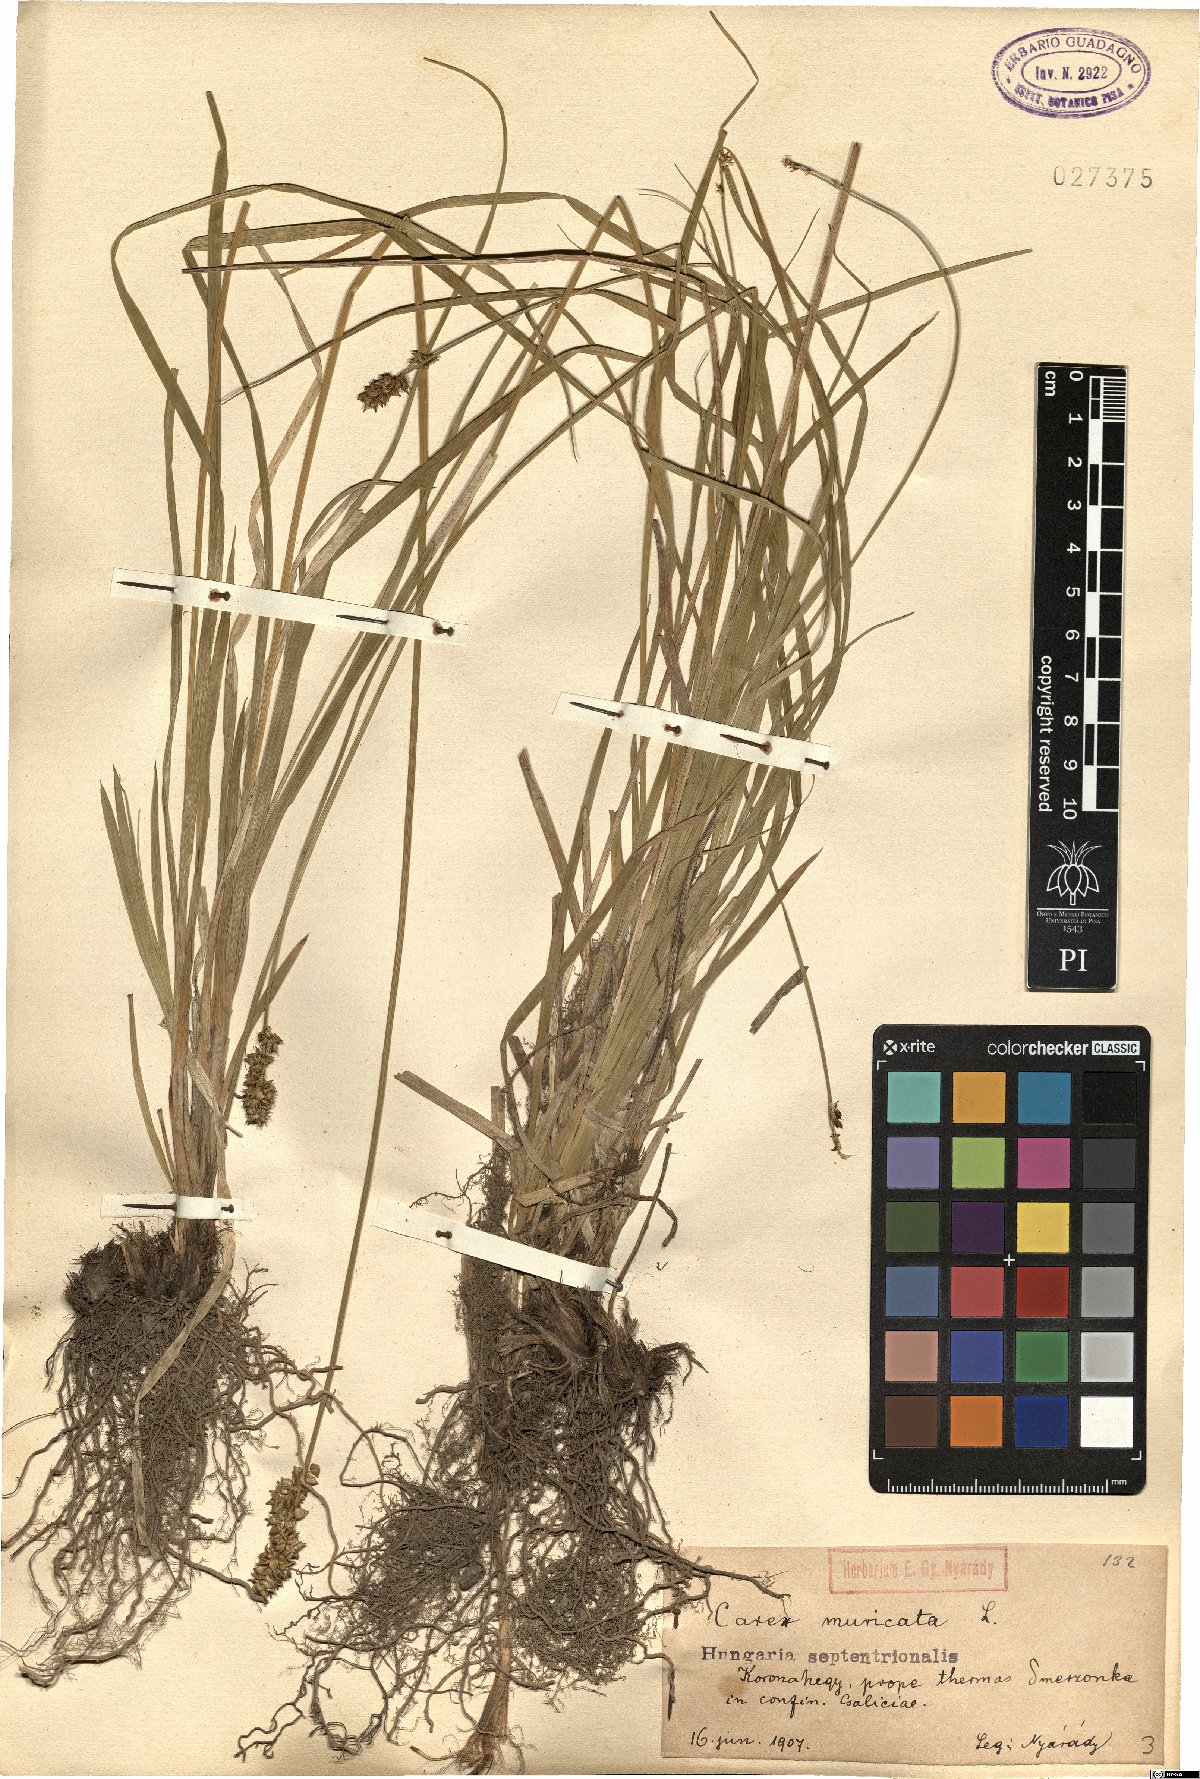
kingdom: Plantae
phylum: Tracheophyta
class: Liliopsida
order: Poales
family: Cyperaceae
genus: Carex
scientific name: Carex muricata
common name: Rough sedge
